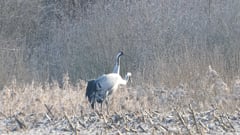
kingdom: Animalia
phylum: Chordata
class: Aves
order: Gruiformes
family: Gruidae
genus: Grus
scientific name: Grus grus
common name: Common crane
